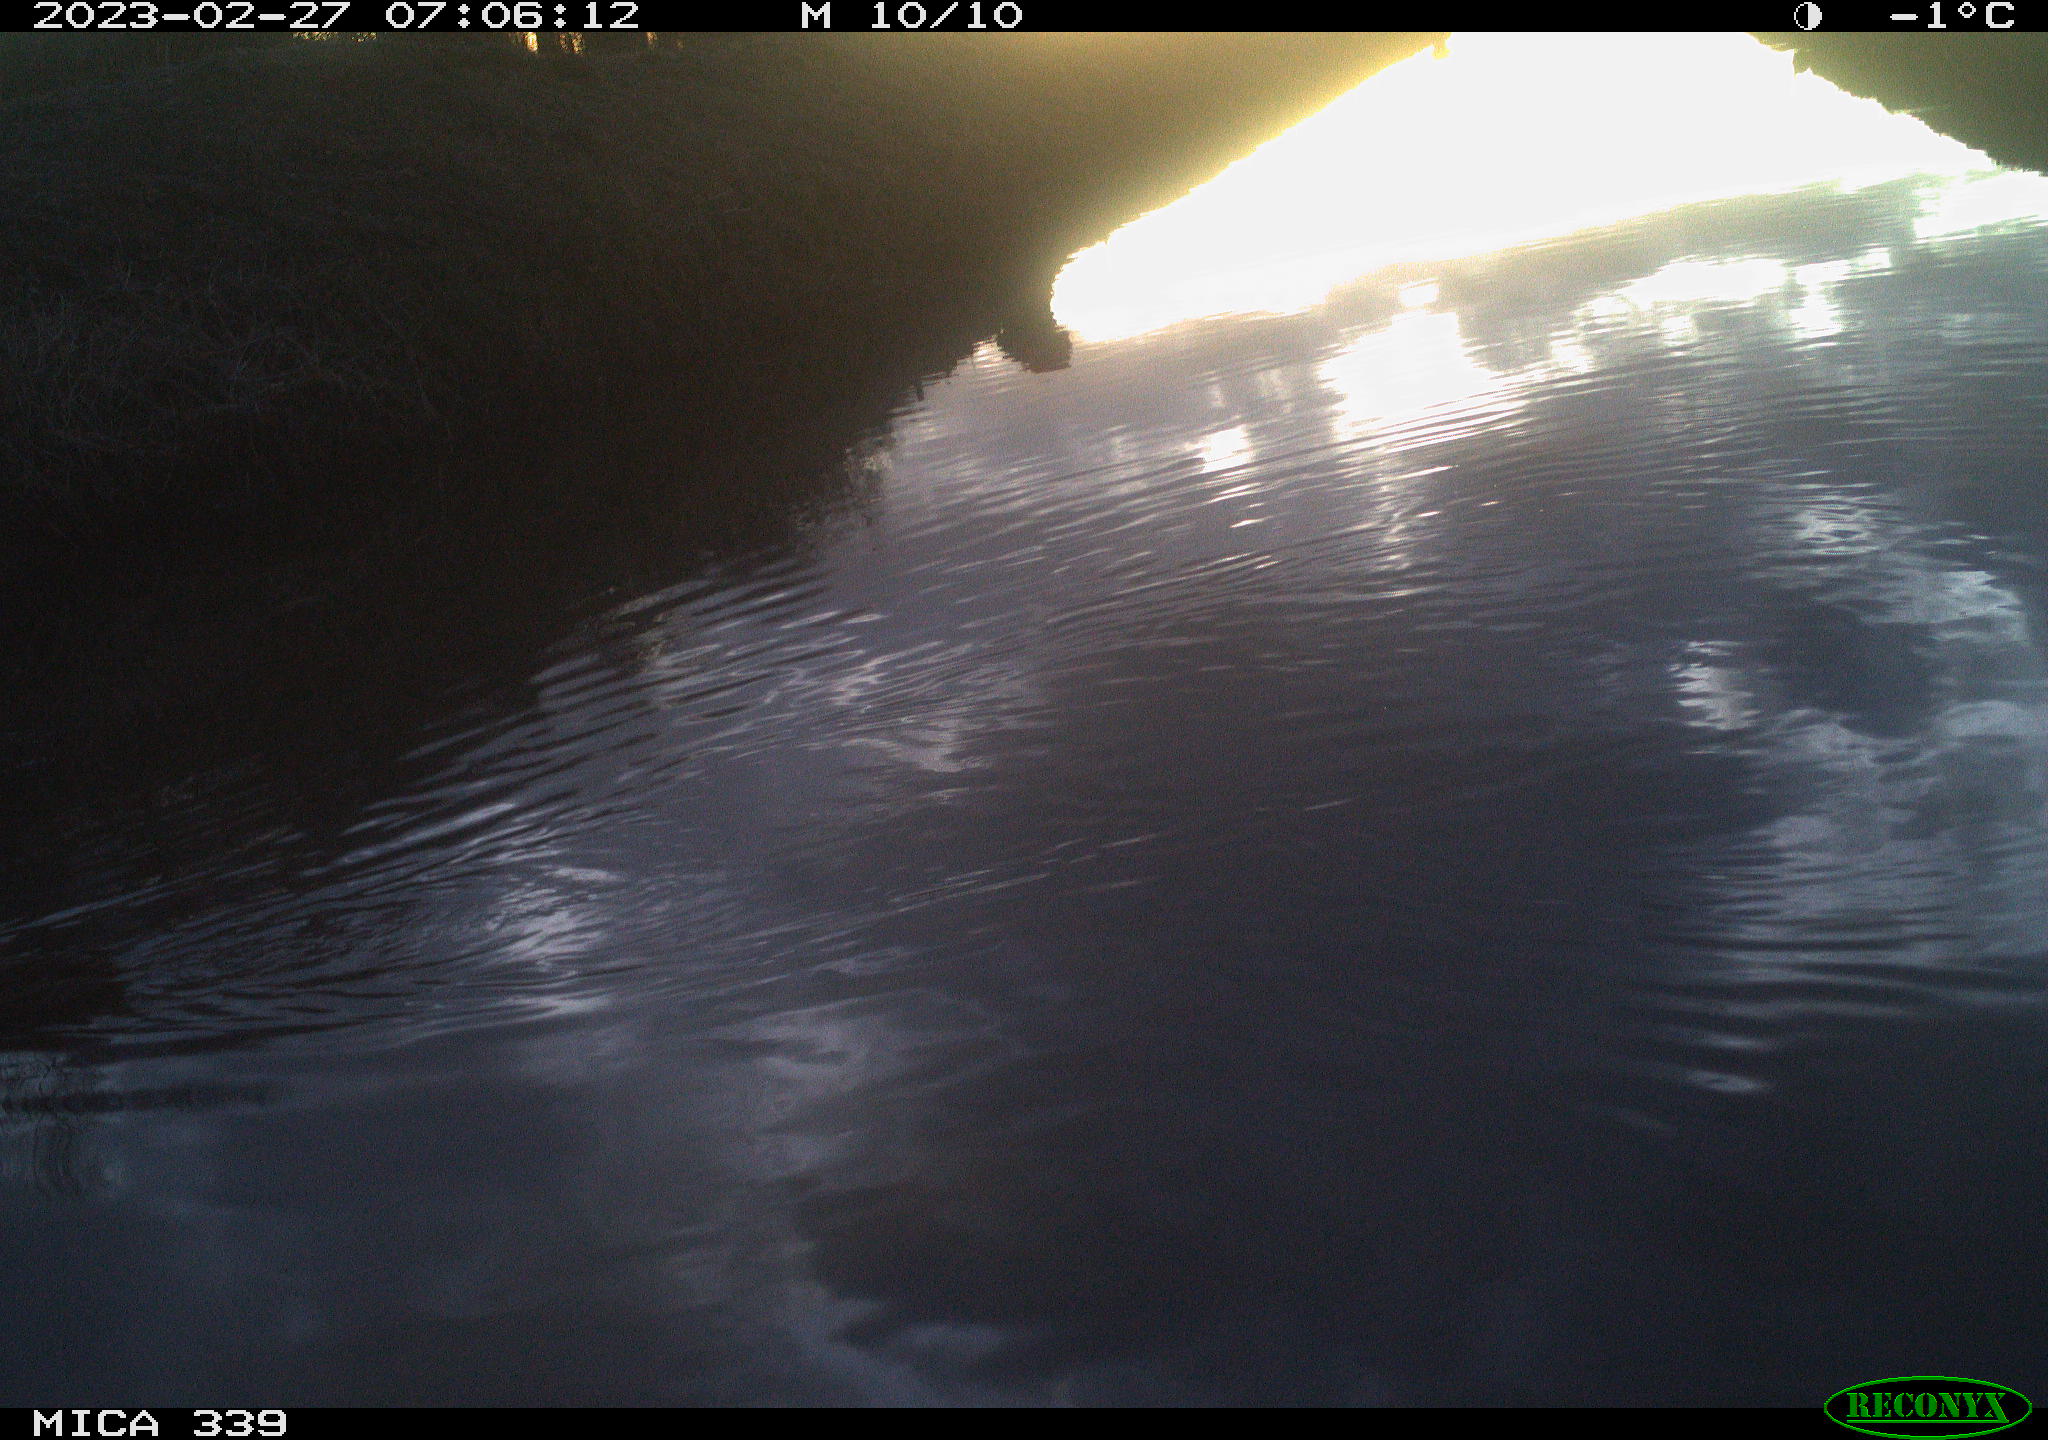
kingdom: Animalia
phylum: Chordata
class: Aves
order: Anseriformes
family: Anatidae
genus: Anas
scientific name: Anas
